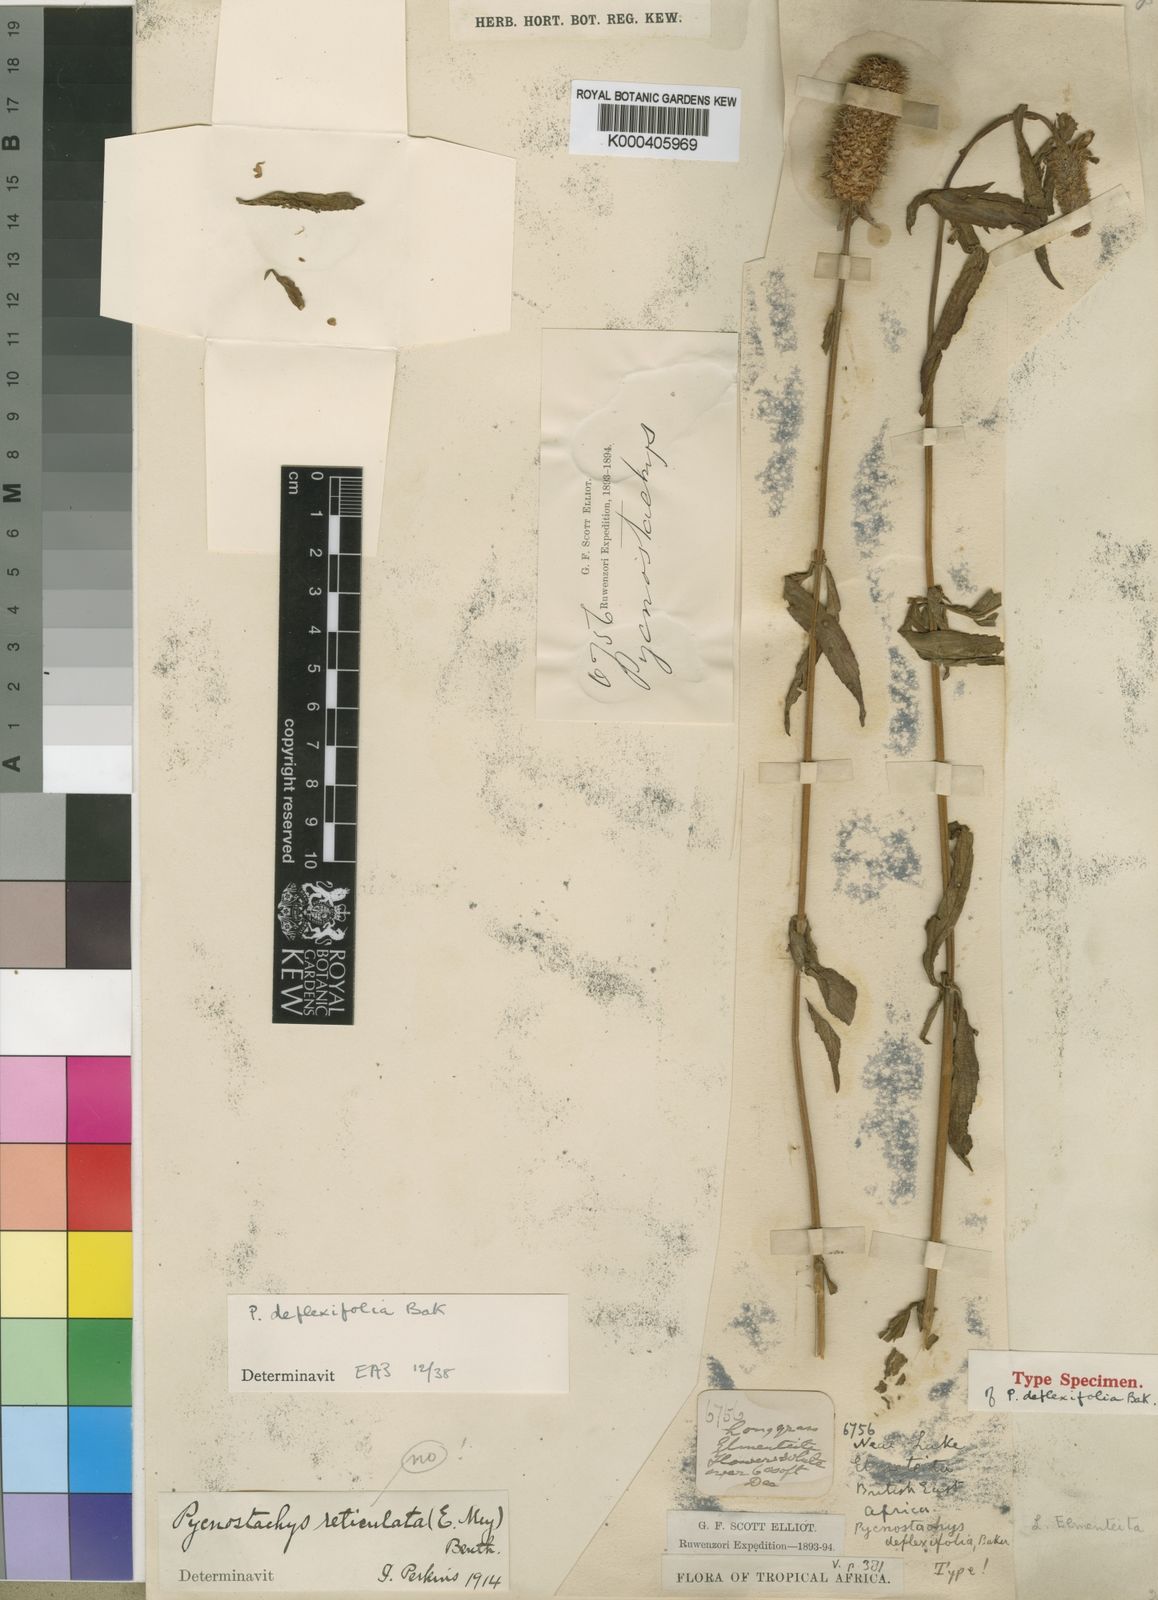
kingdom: Plantae
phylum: Tracheophyta
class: Magnoliopsida
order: Lamiales
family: Lamiaceae
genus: Coleus
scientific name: Coleus deflexifolius
